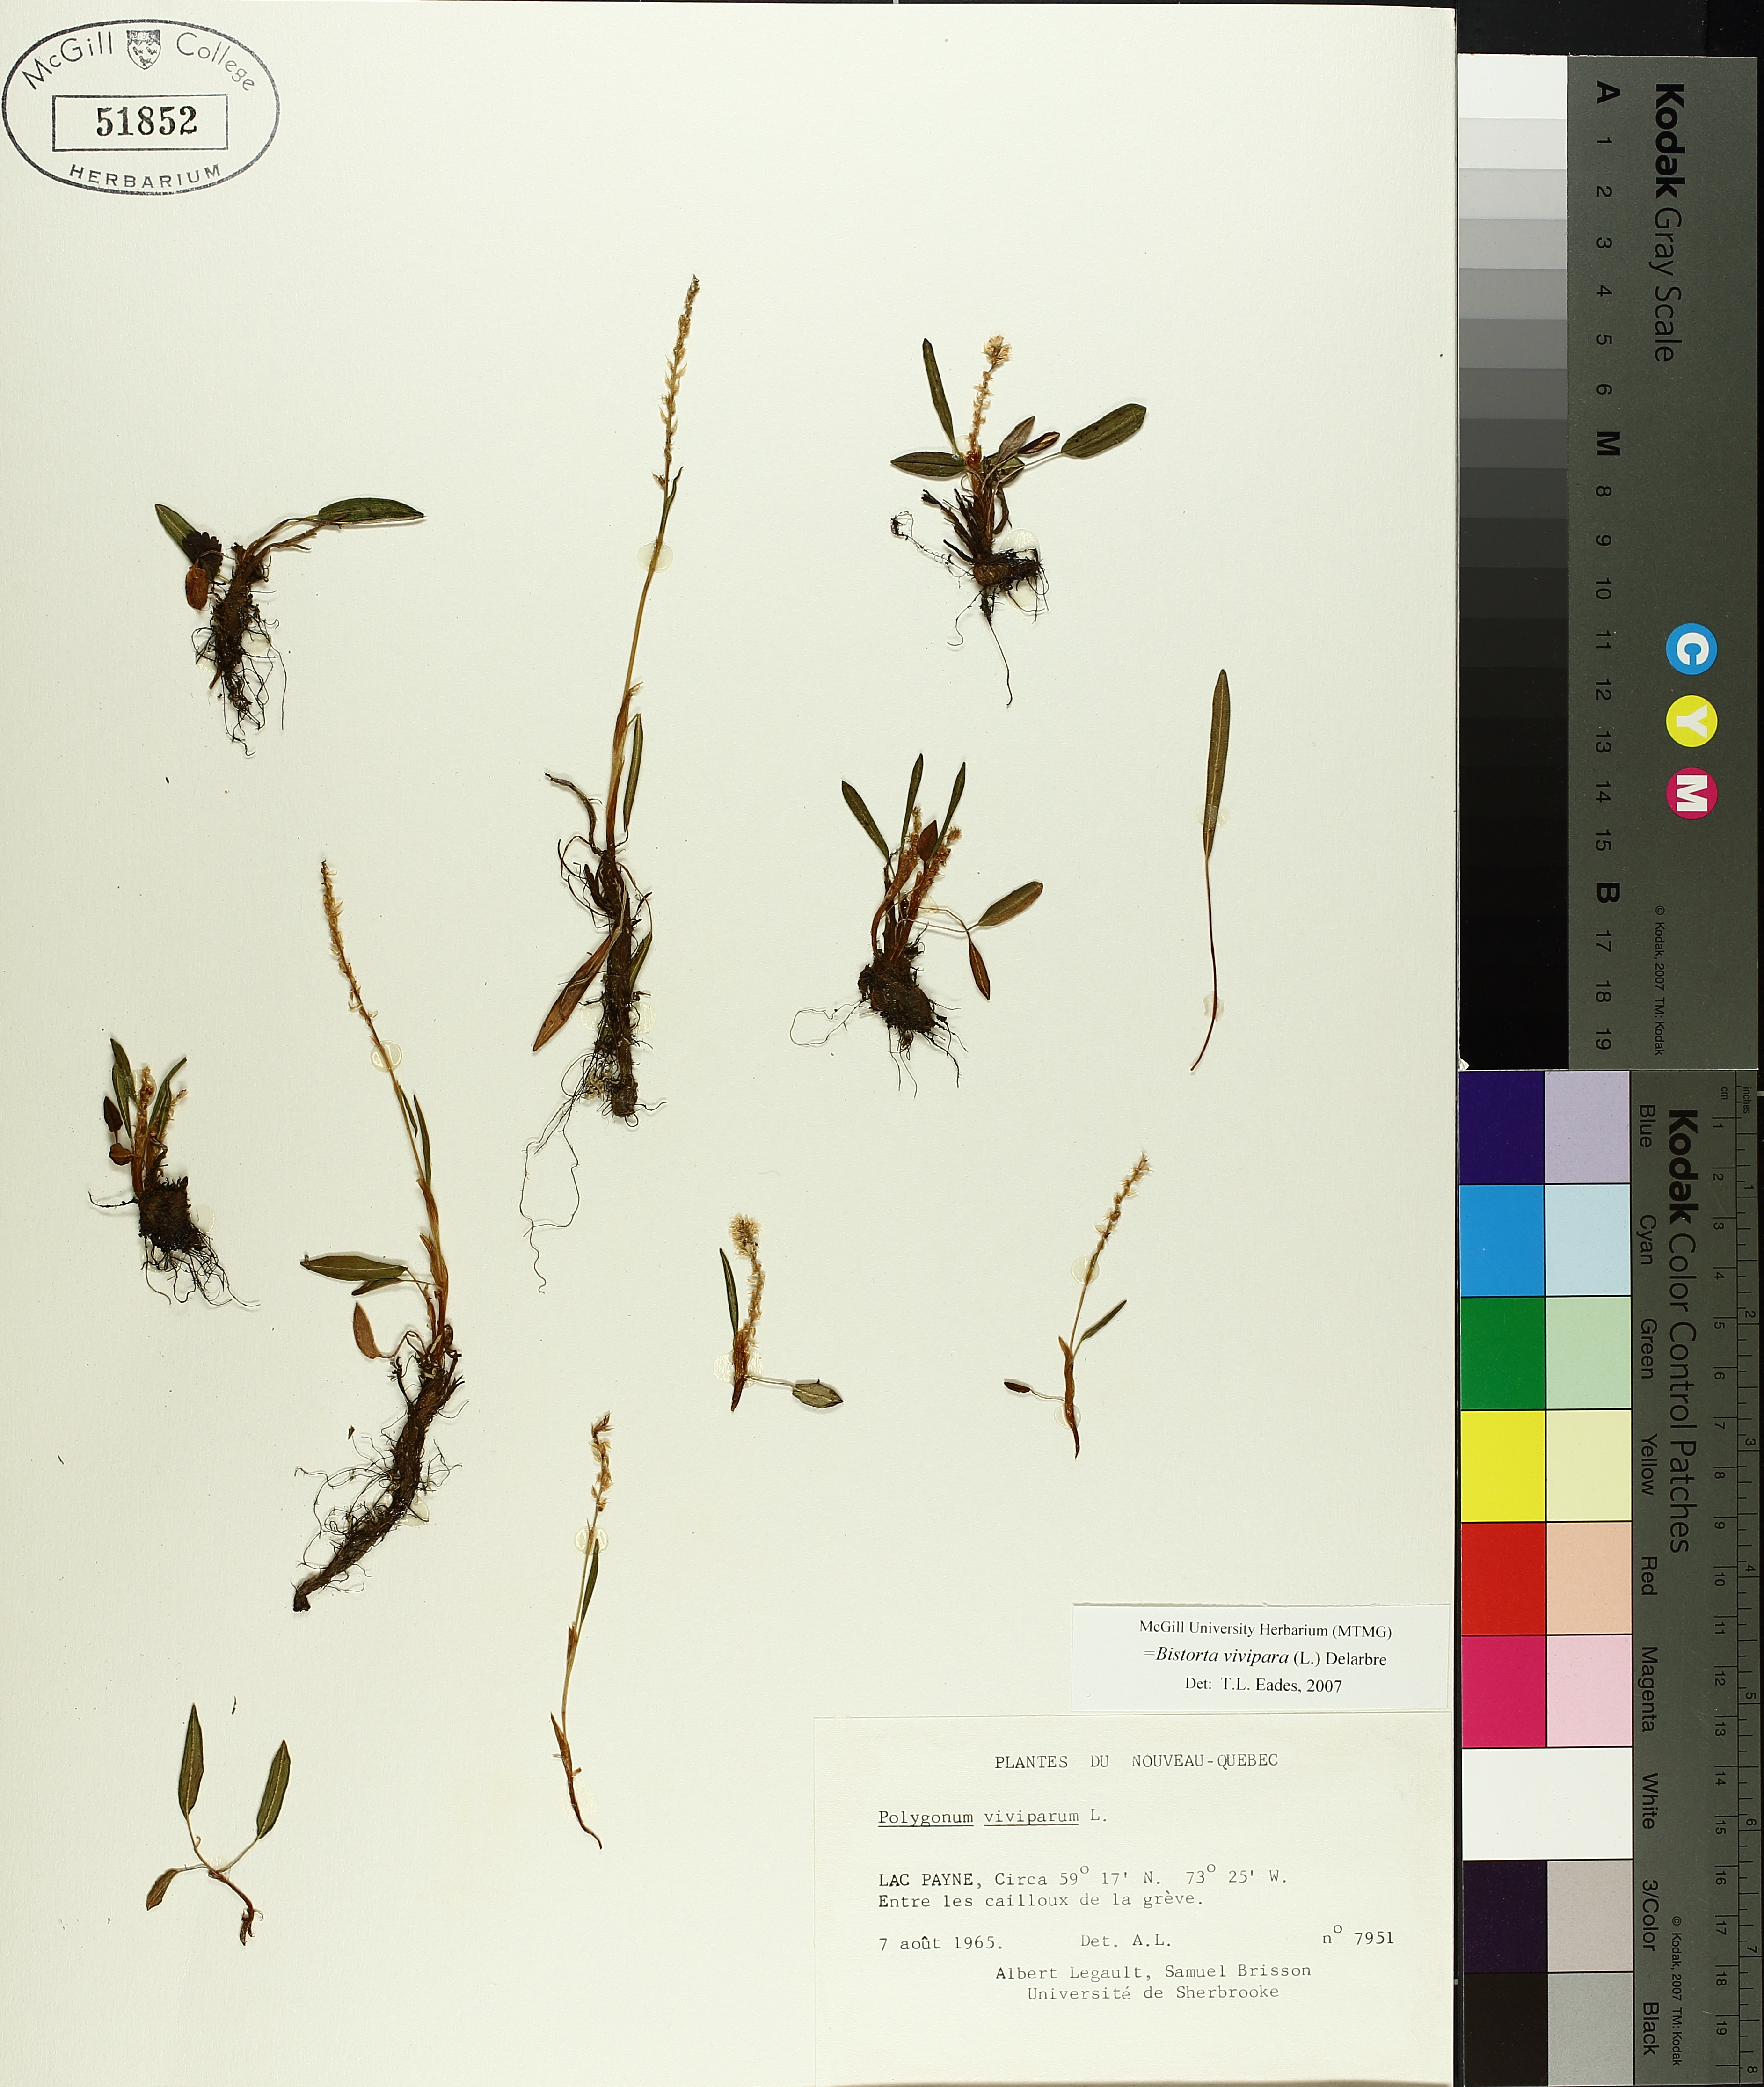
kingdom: Plantae
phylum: Tracheophyta
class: Magnoliopsida
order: Caryophyllales
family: Polygonaceae
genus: Bistorta
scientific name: Bistorta vivipara
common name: Alpine bistort
